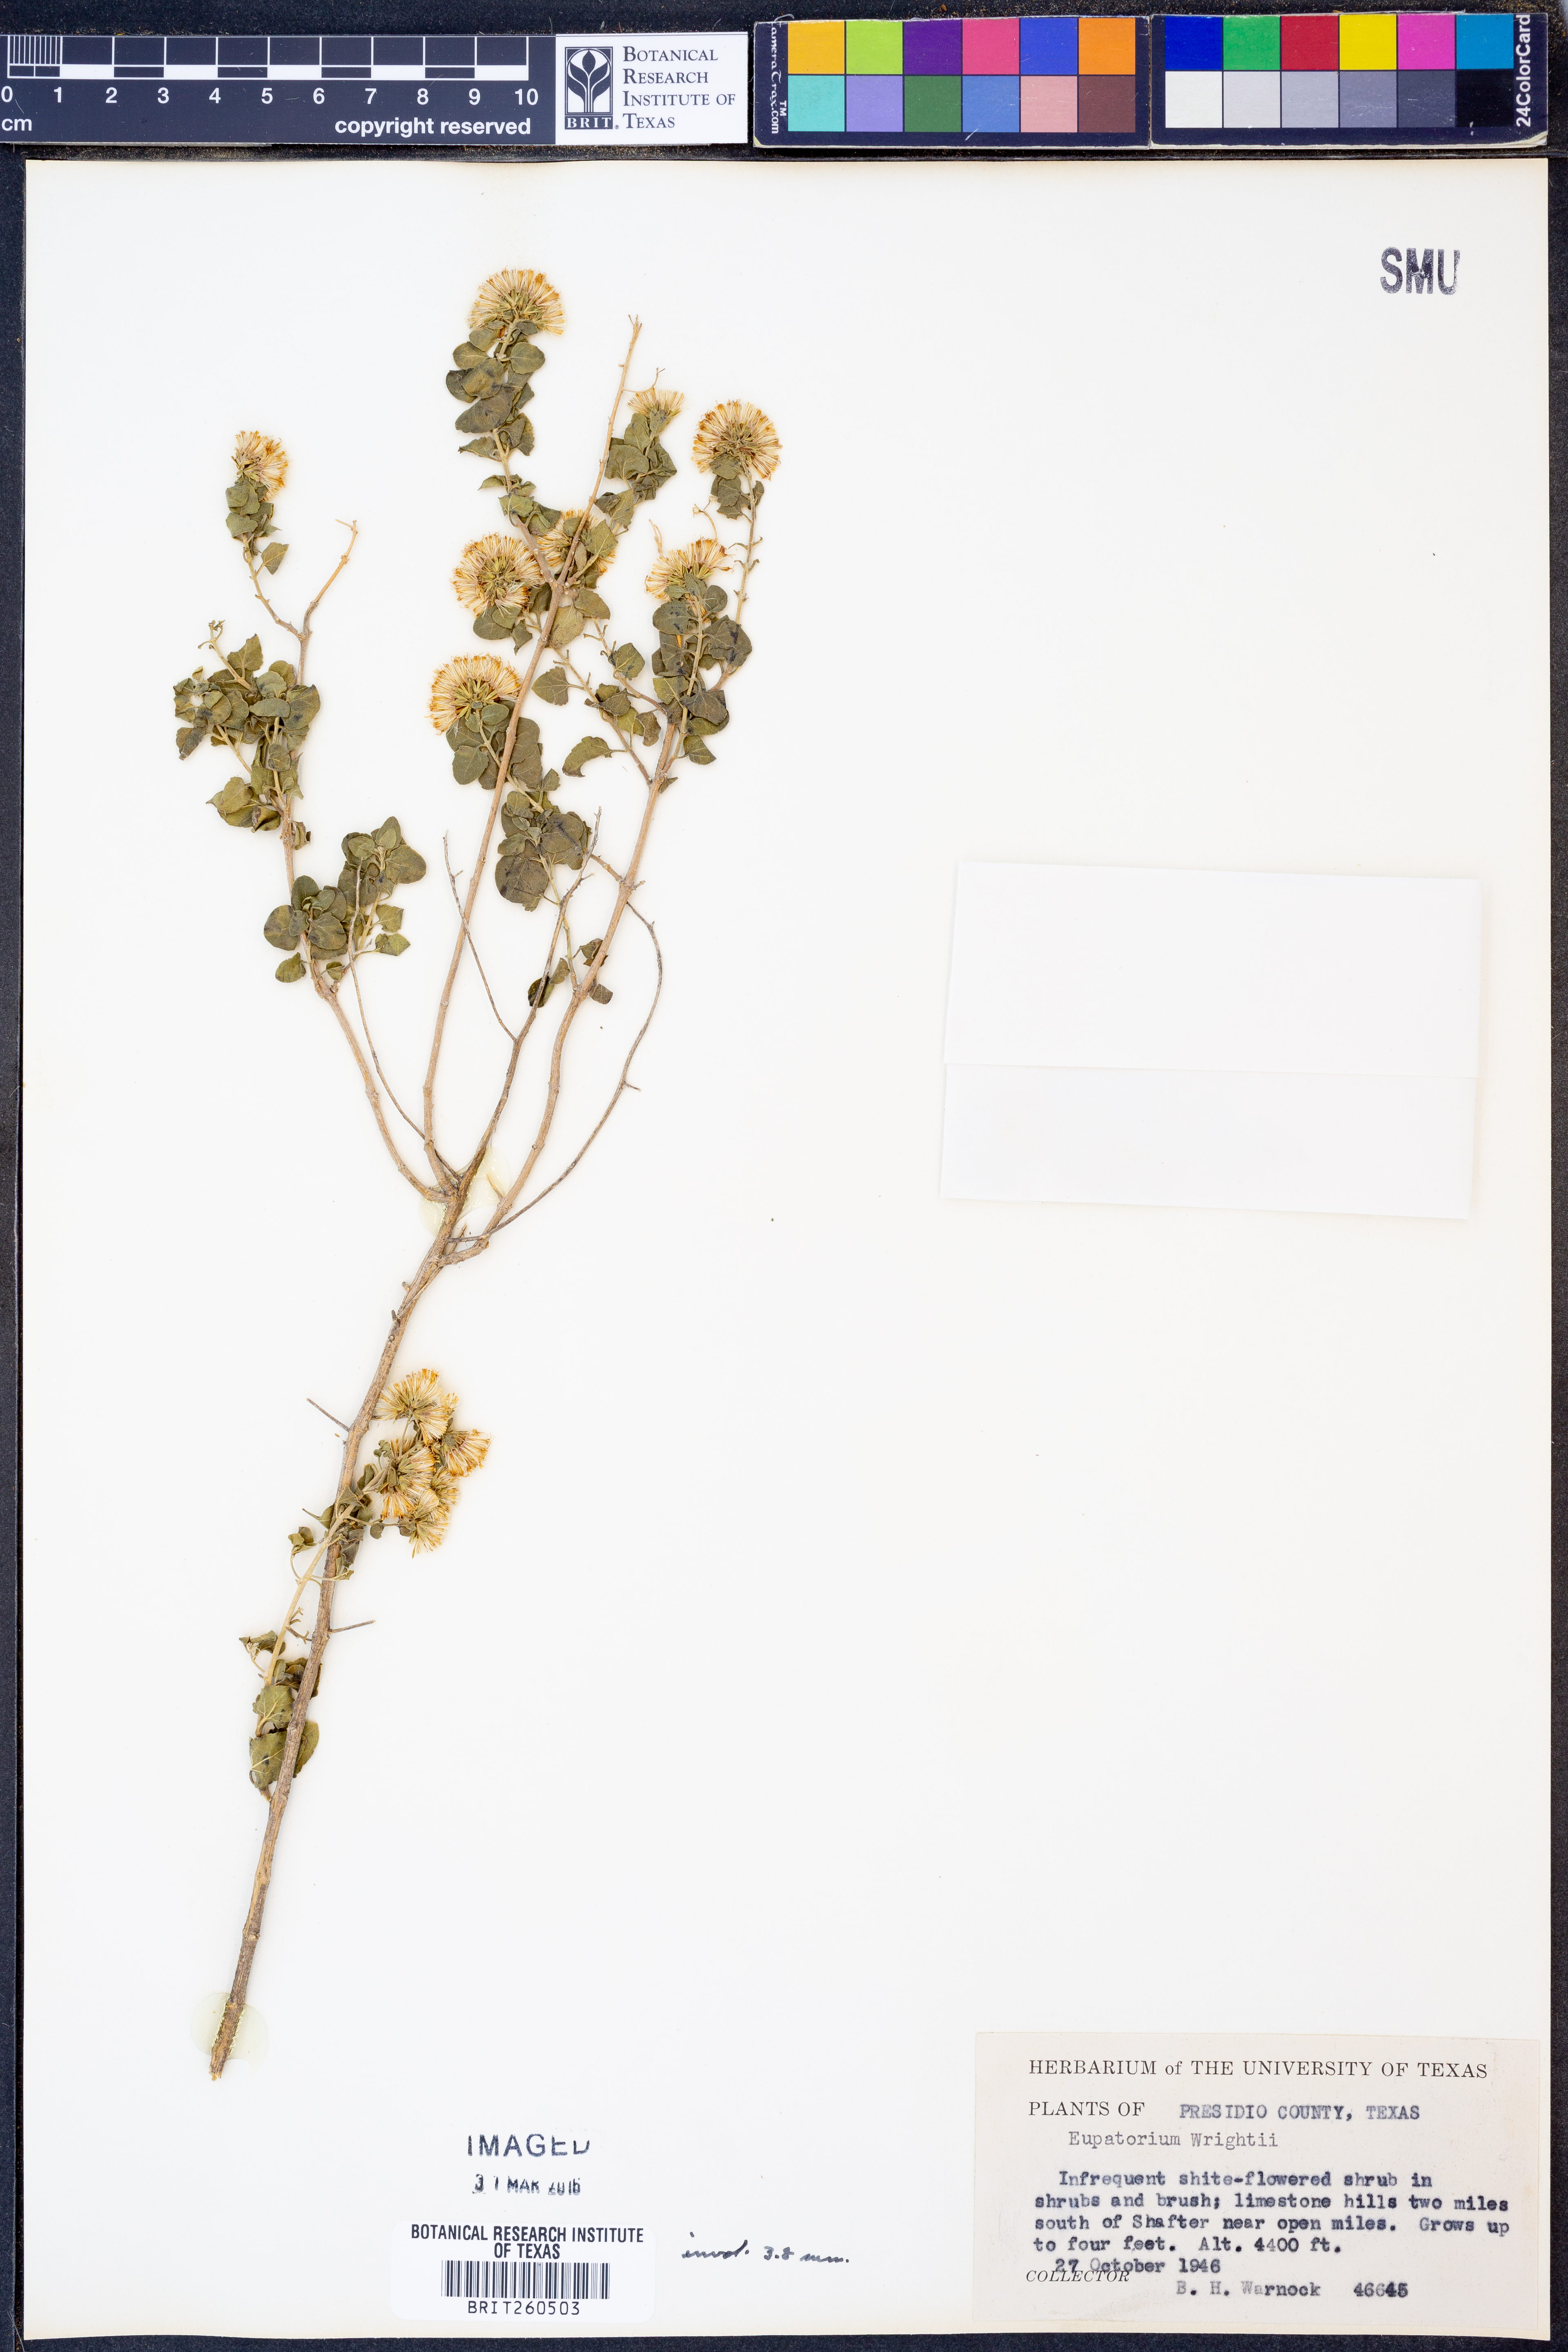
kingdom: Plantae
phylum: Tracheophyta
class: Magnoliopsida
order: Asterales
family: Asteraceae
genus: Ageratina
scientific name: Ageratina wrightii
